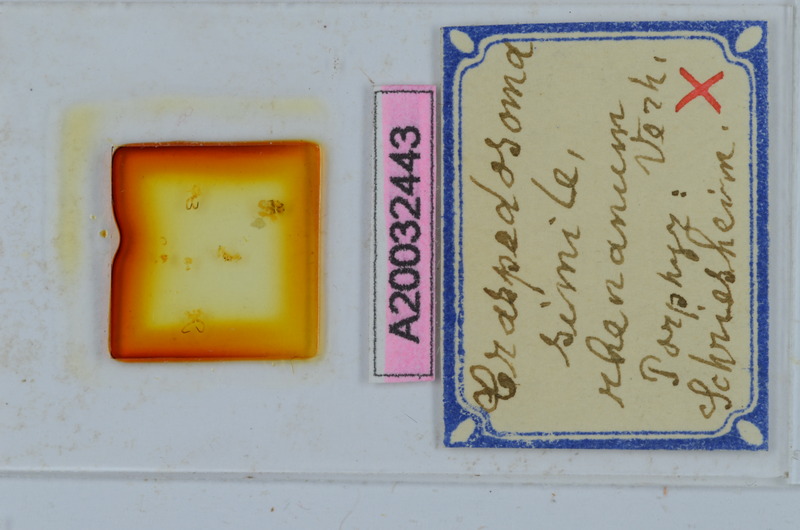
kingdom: Animalia
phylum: Arthropoda
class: Diplopoda
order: Chordeumatida
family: Craspedosomatidae
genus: Craspedosoma
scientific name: Craspedosoma rawlinsii
